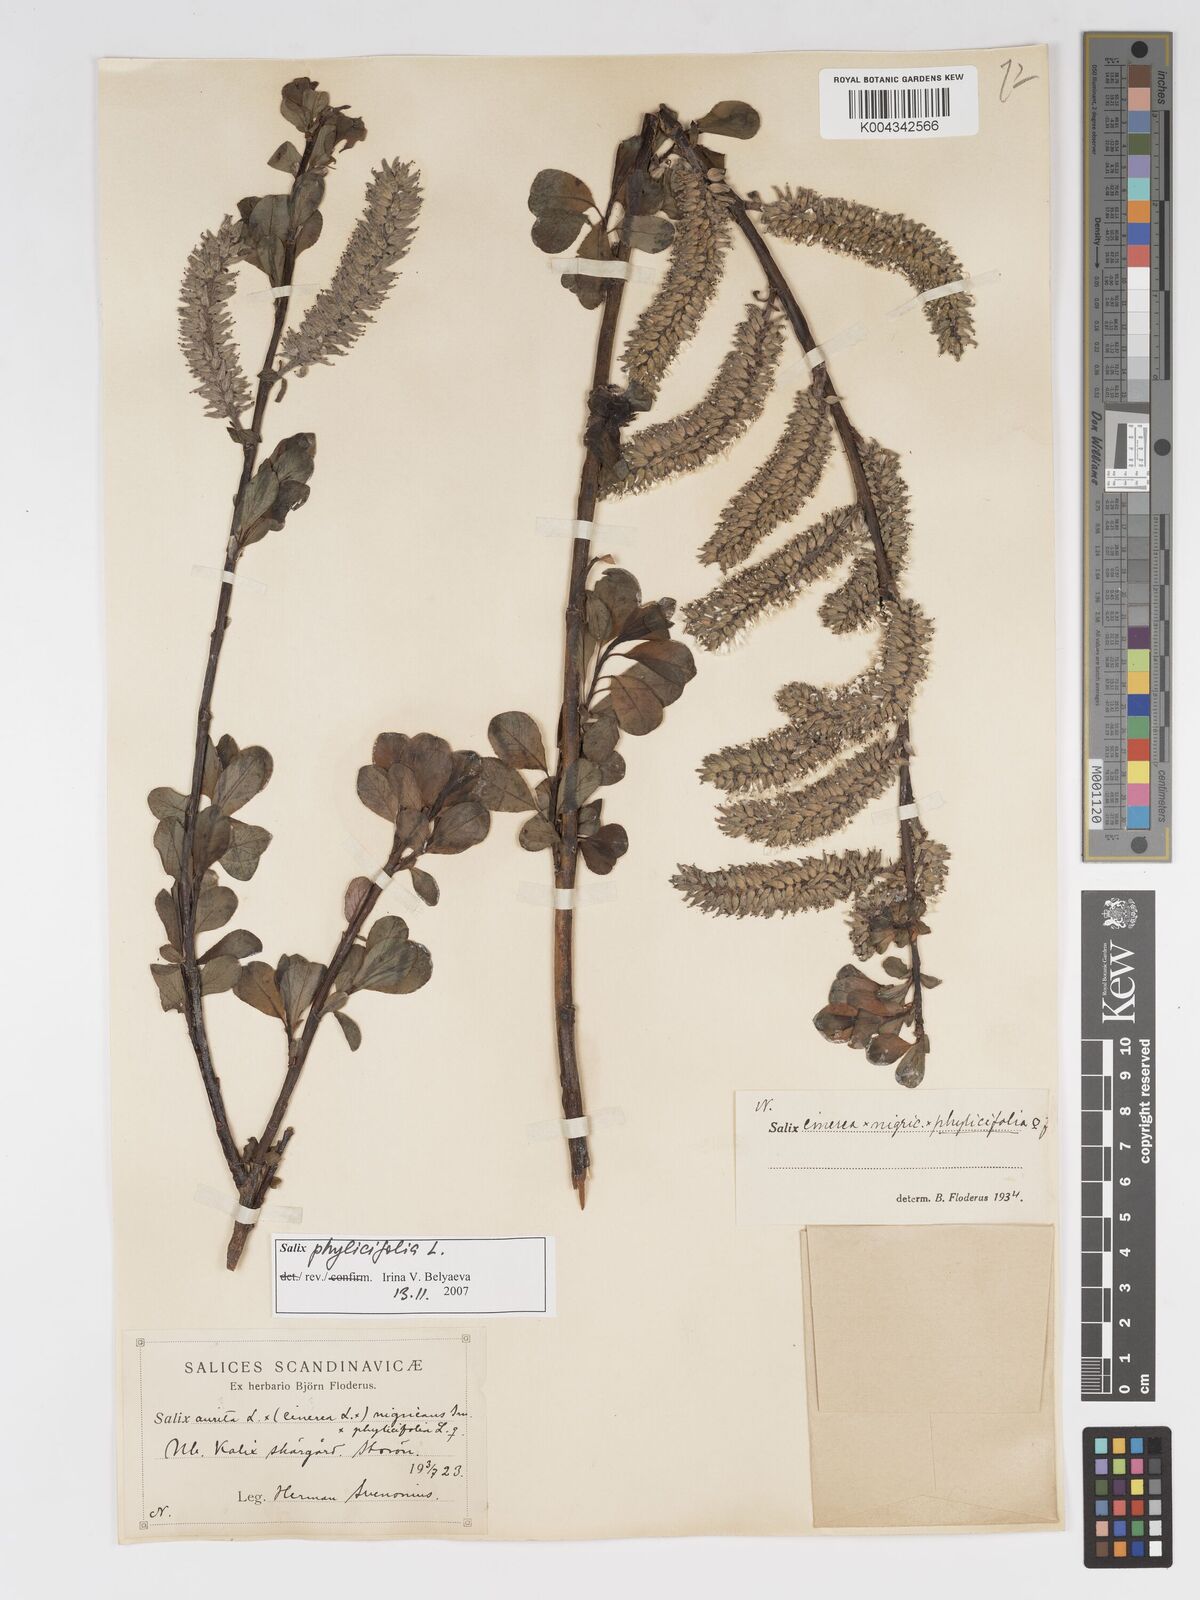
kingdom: Plantae
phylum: Tracheophyta
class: Magnoliopsida
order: Malpighiales
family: Salicaceae
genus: Salix
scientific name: Salix cinerea
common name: Common sallow
